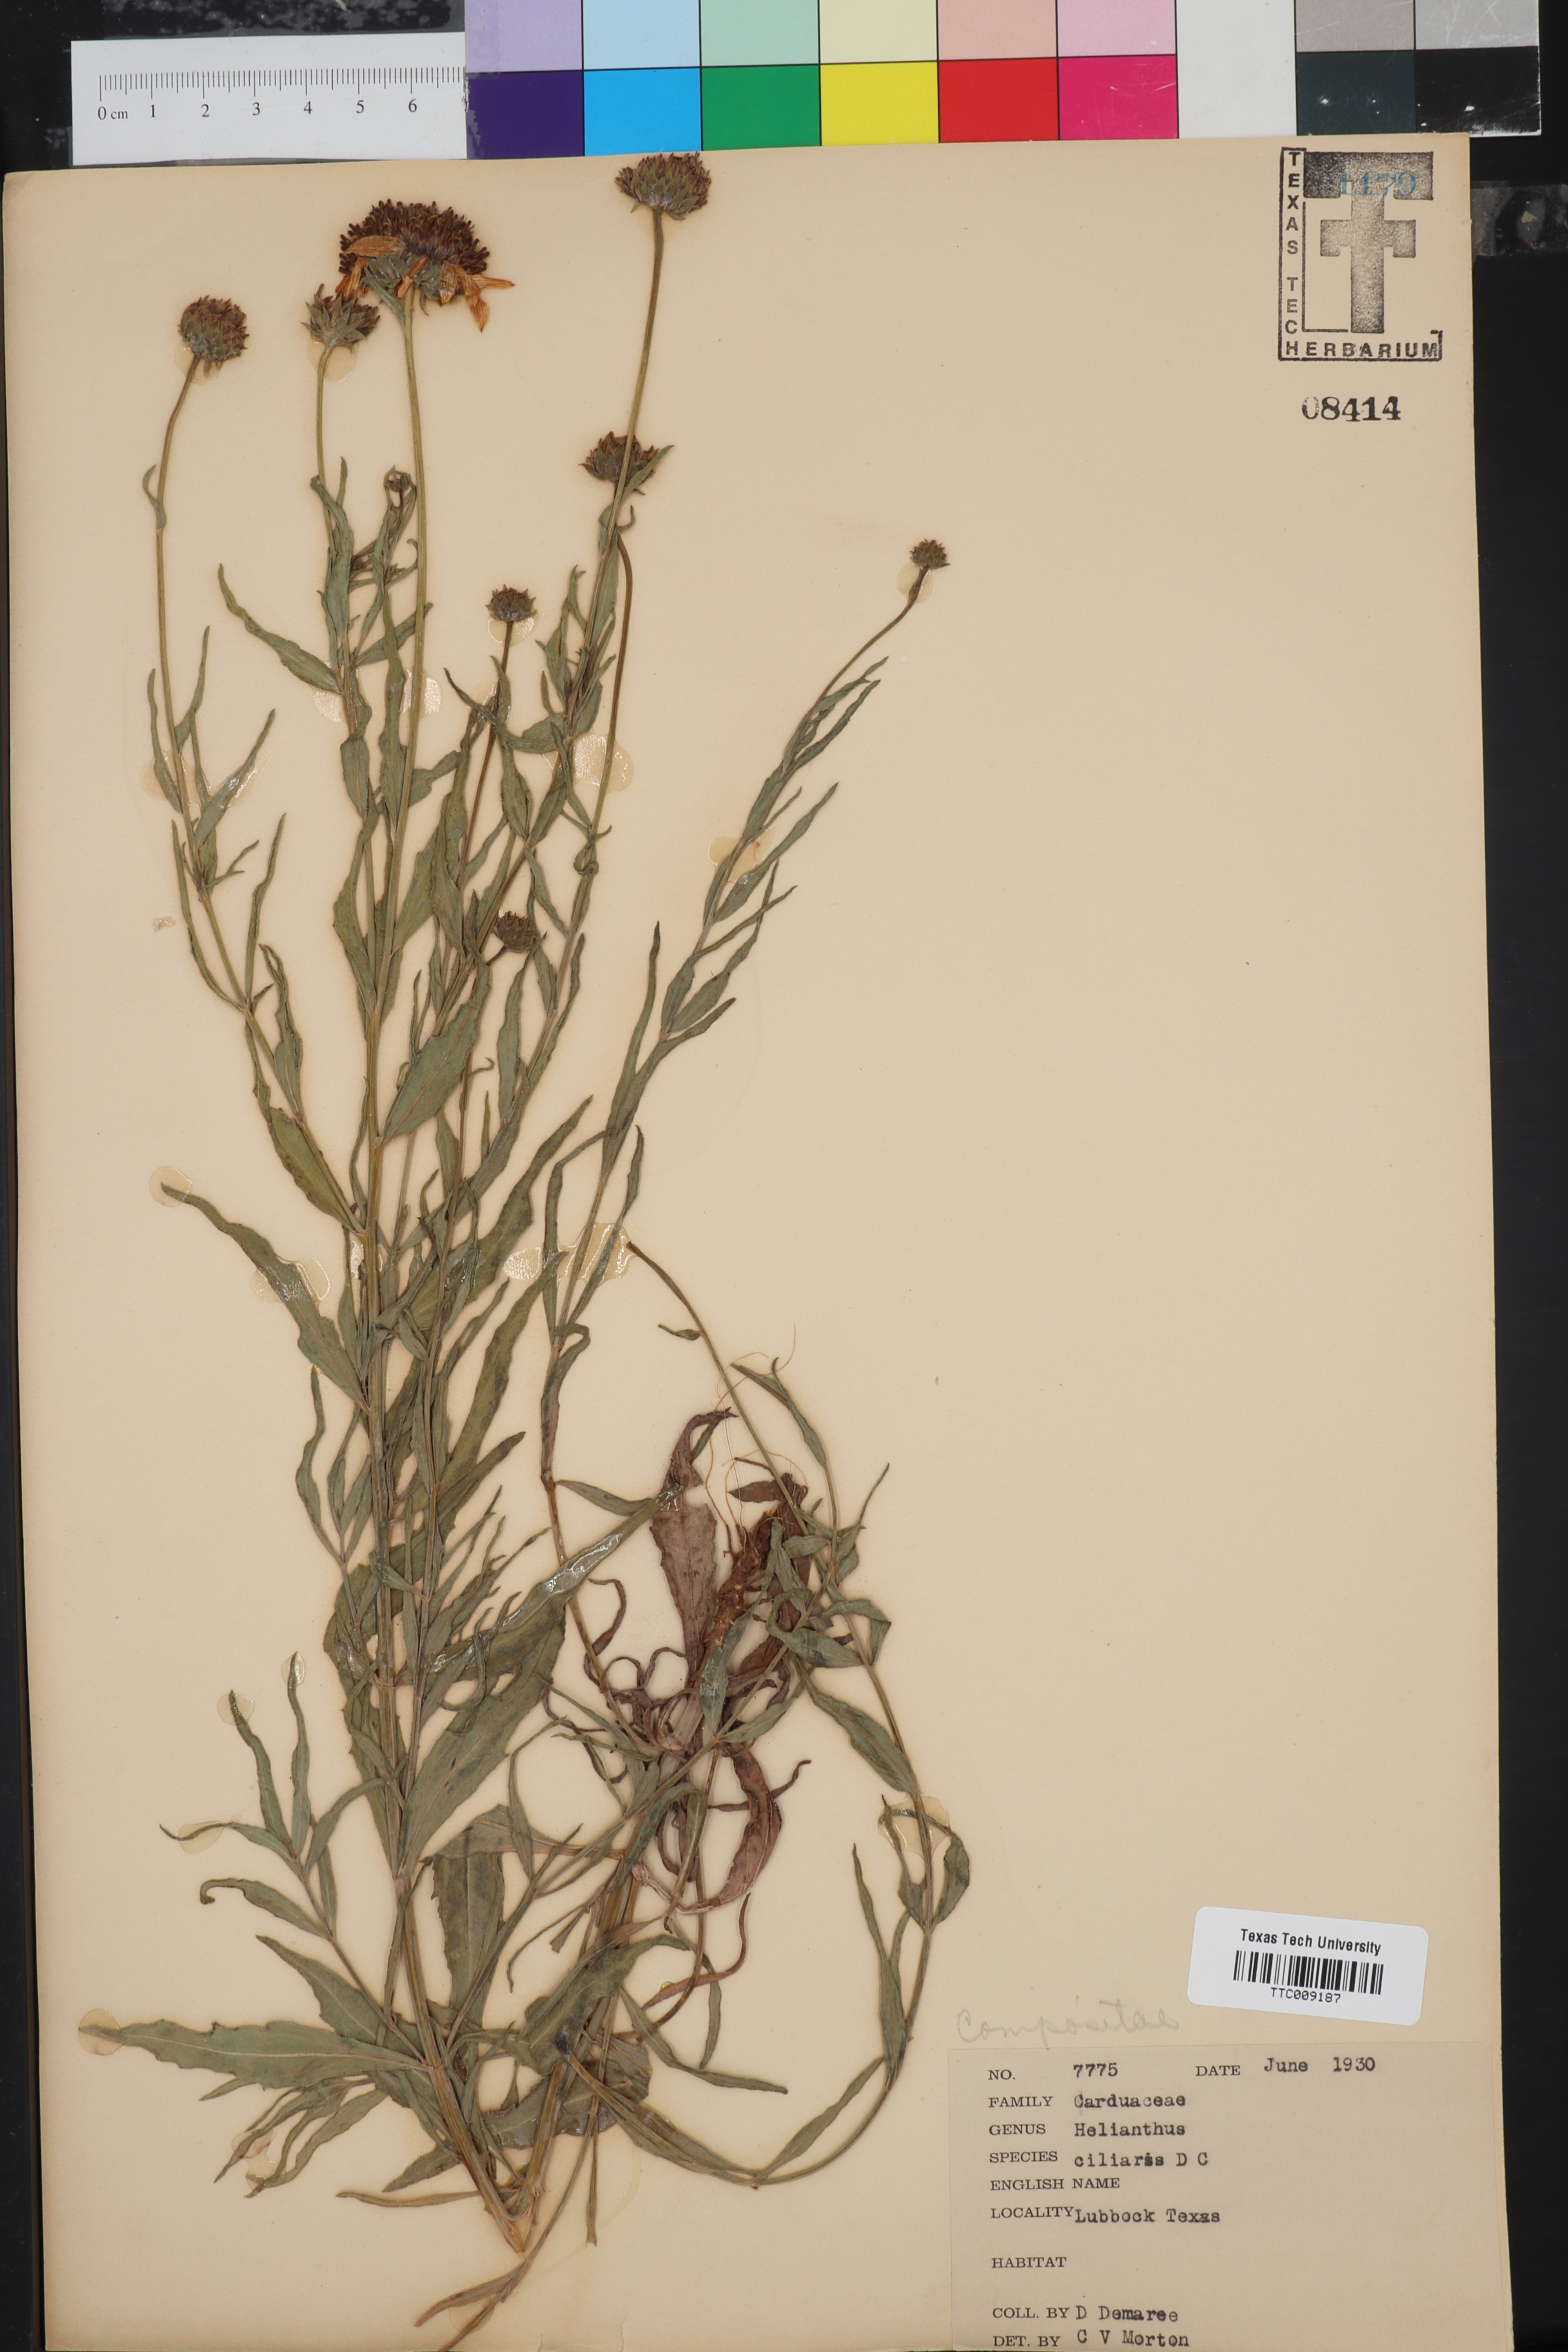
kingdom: Plantae
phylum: Tracheophyta
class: Magnoliopsida
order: Asterales
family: Asteraceae
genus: Helianthus
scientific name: Helianthus ciliaris
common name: Texas blueweed
